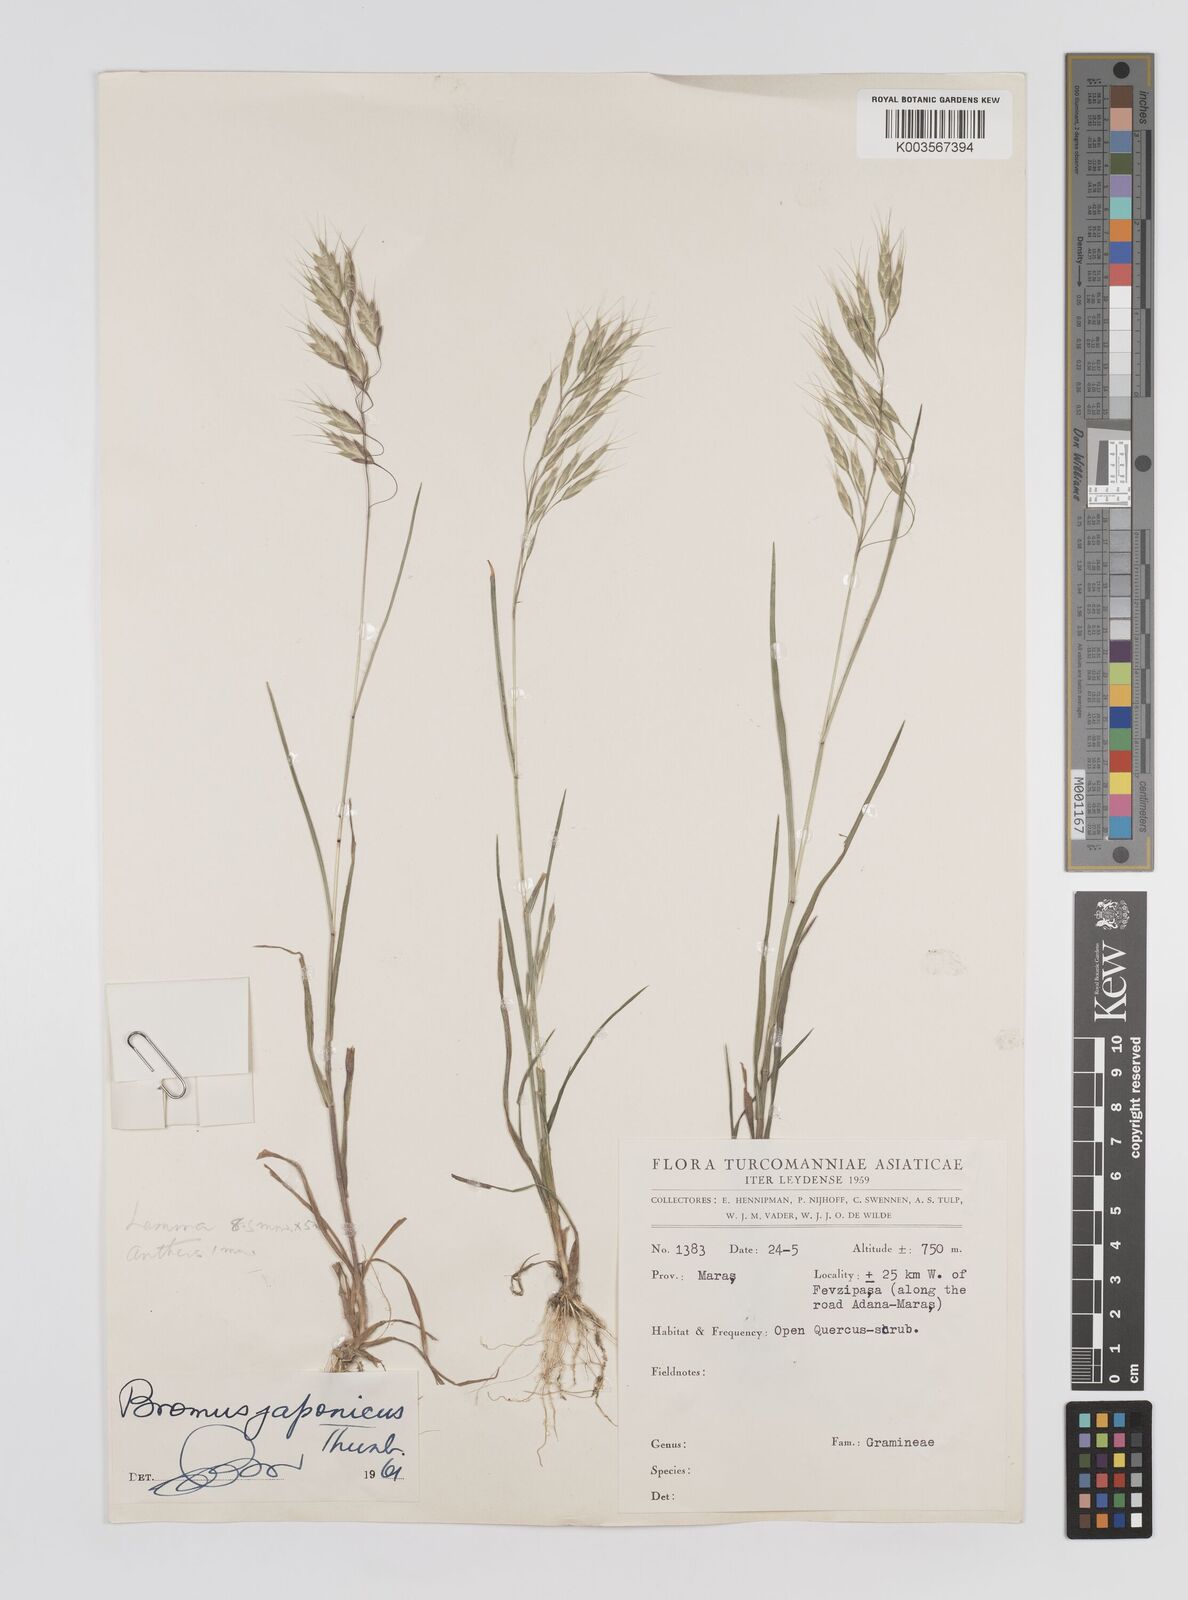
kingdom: Plantae
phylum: Tracheophyta
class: Liliopsida
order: Poales
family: Poaceae
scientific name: Poaceae
